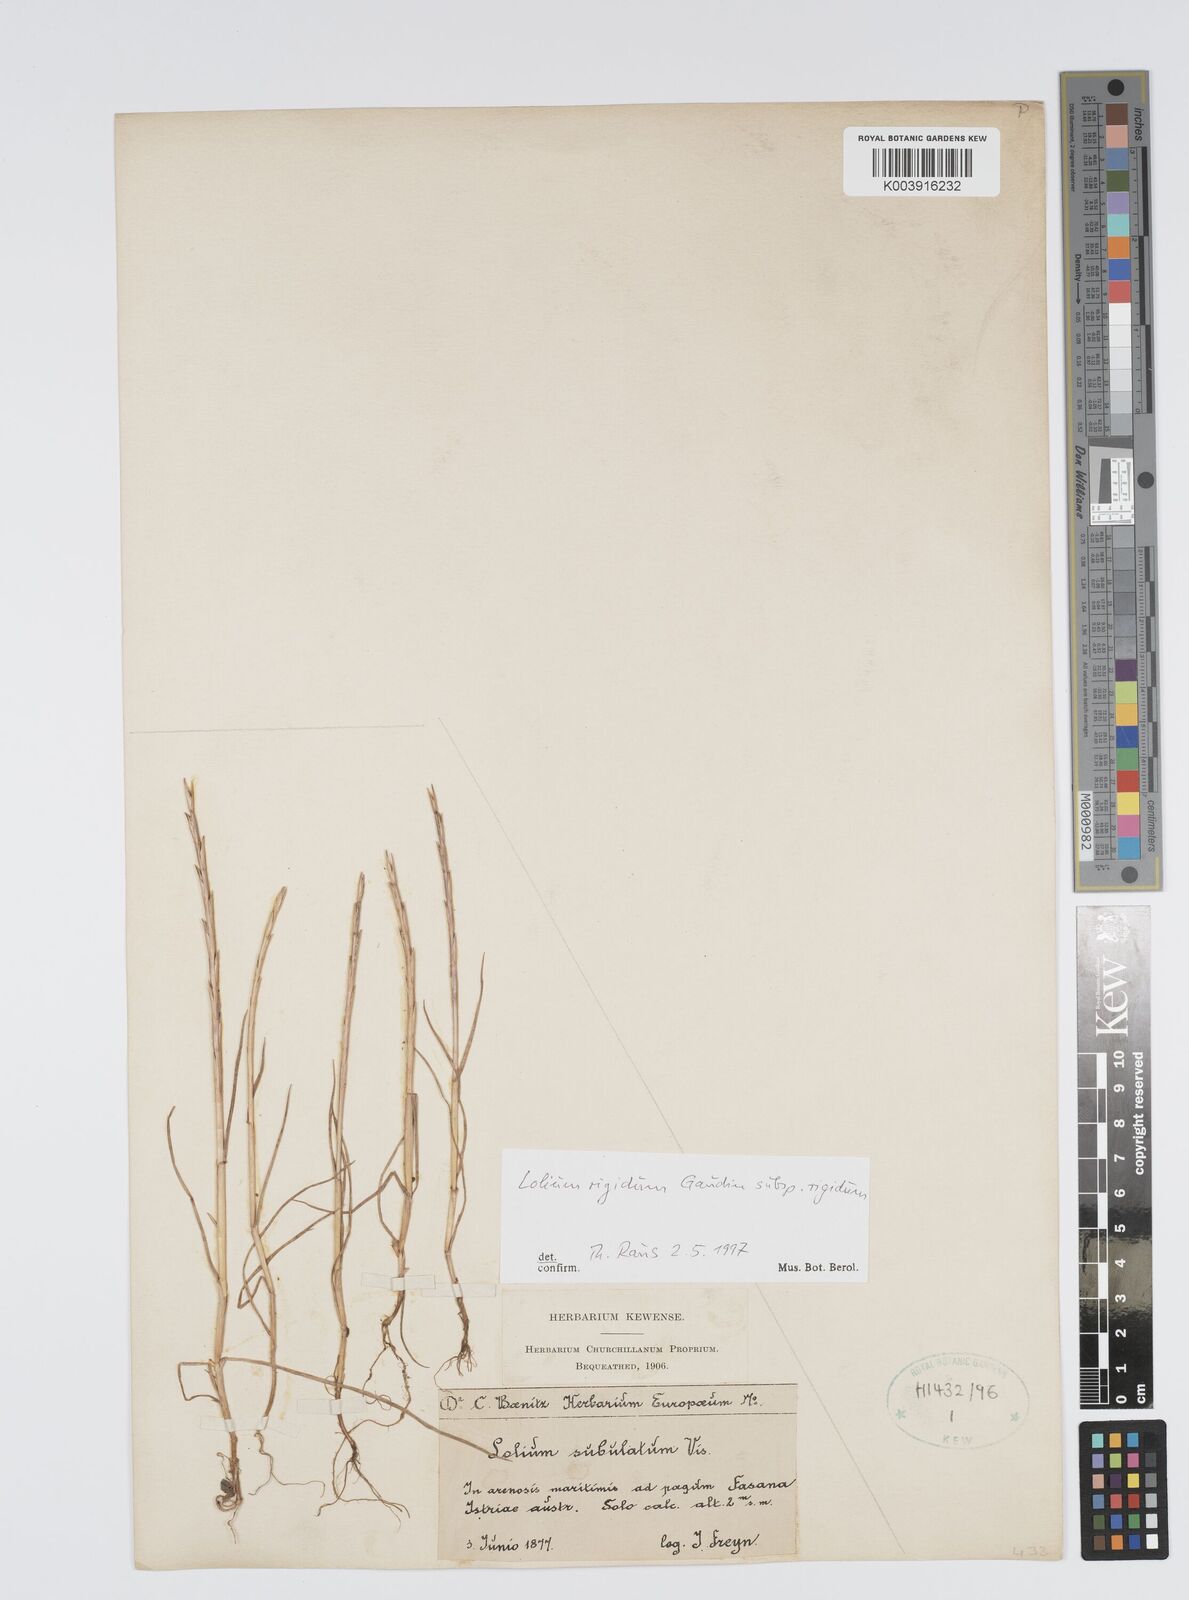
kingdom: Plantae
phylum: Tracheophyta
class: Liliopsida
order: Poales
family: Poaceae
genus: Lolium
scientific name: Lolium rigidum
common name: Wimmera ryegrass
